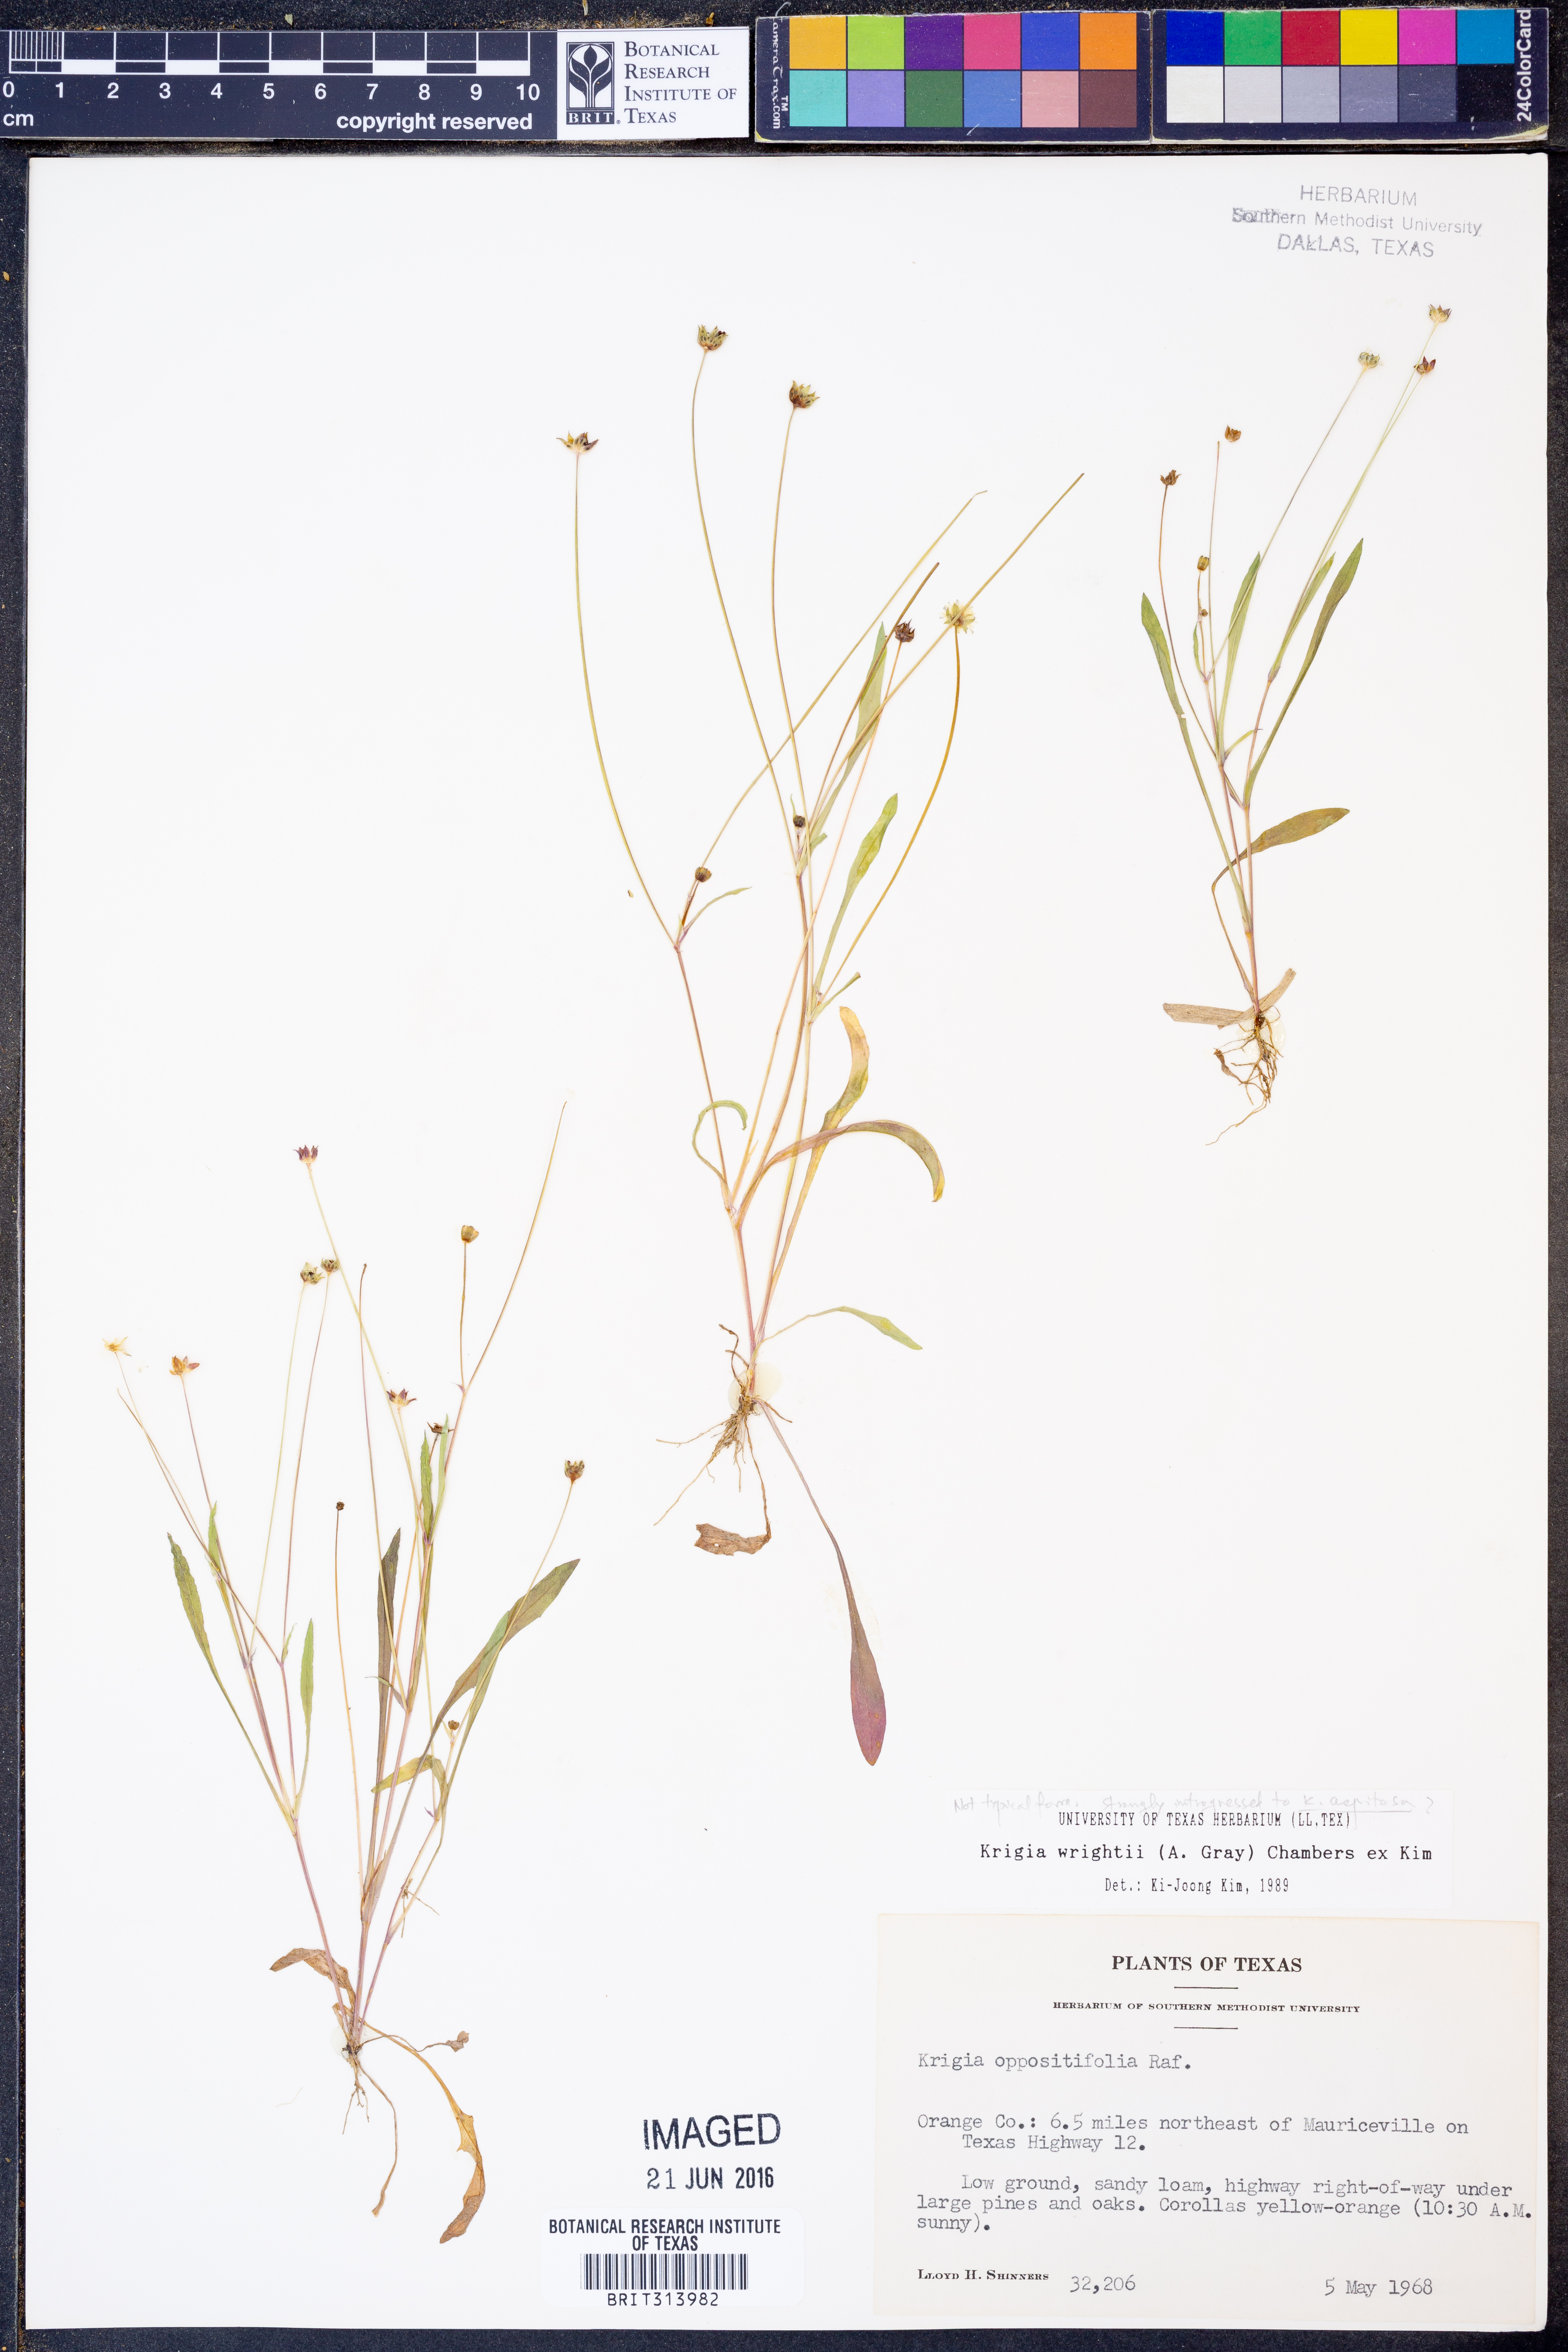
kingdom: Plantae
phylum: Tracheophyta
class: Magnoliopsida
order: Asterales
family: Asteraceae
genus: Krigia
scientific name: Krigia wrightii
